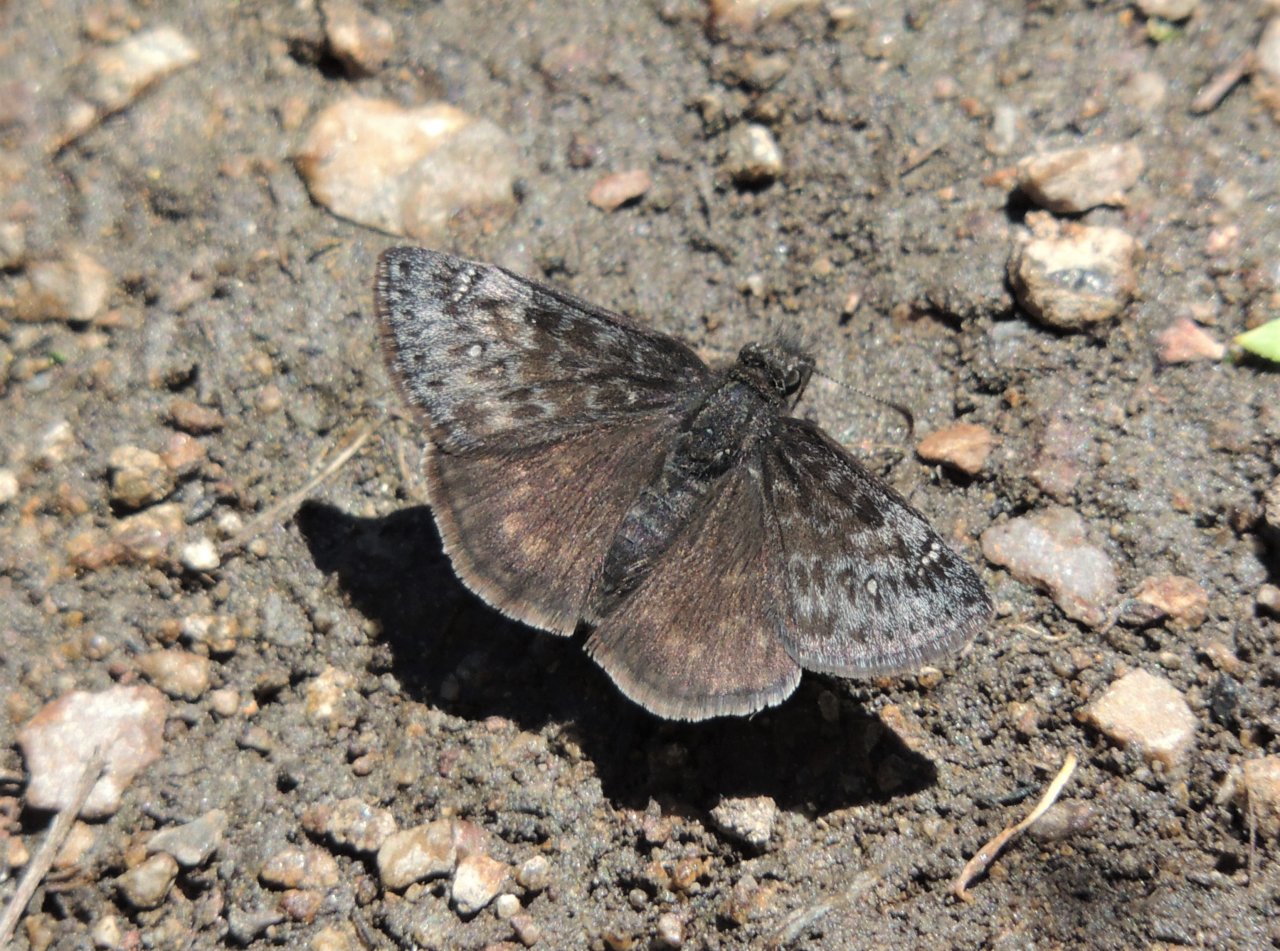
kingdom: Animalia
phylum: Arthropoda
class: Insecta
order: Lepidoptera
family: Hesperiidae
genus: Gesta
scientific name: Gesta
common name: Persius Duskywing
